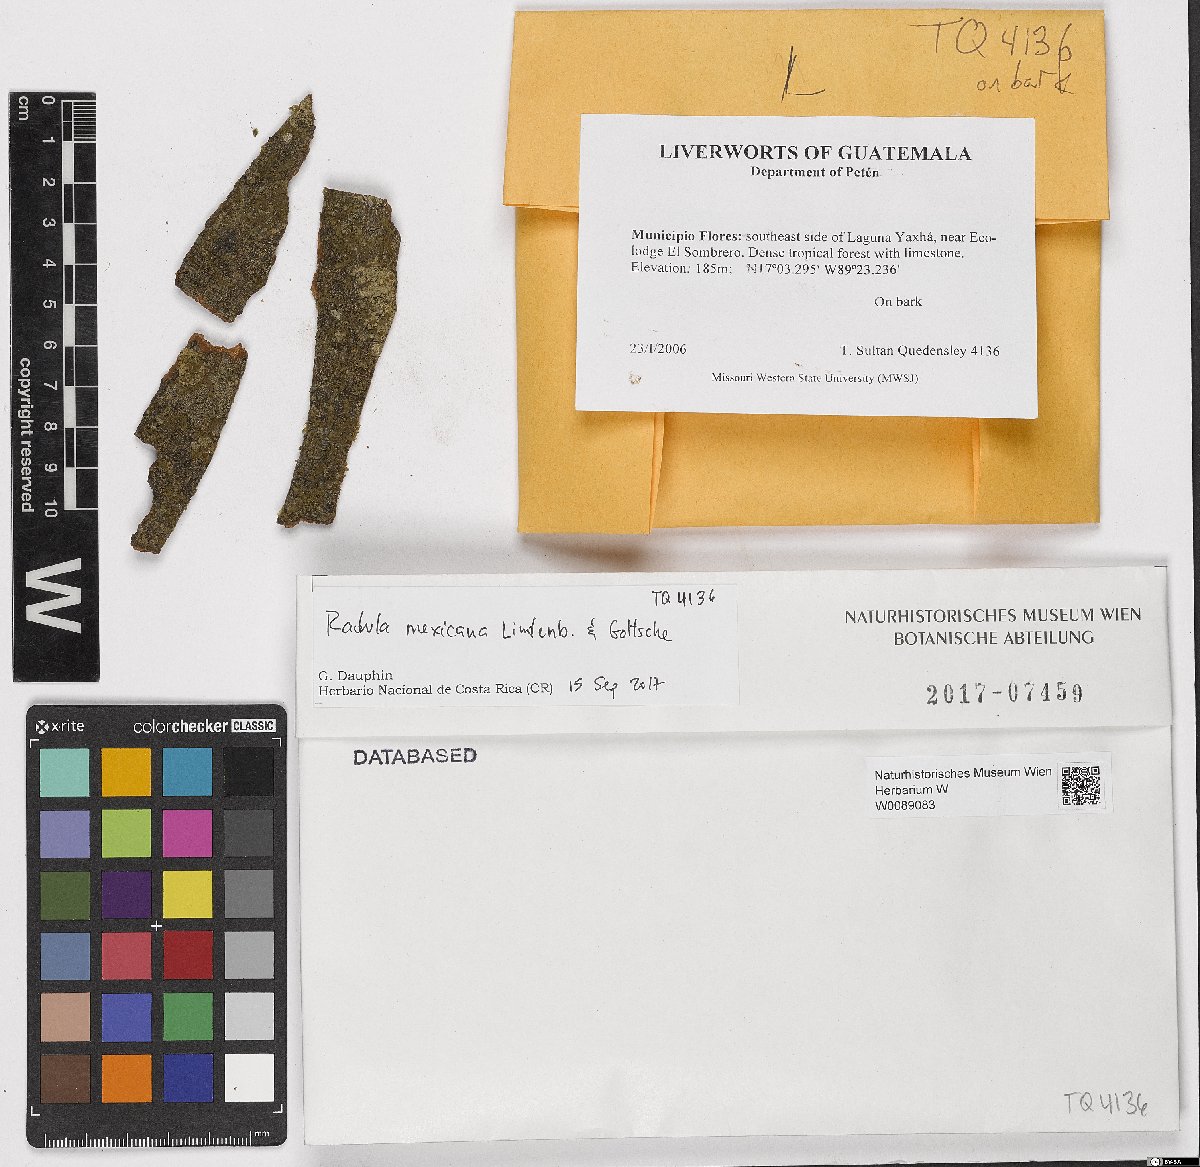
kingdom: Plantae
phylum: Marchantiophyta
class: Jungermanniopsida
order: Porellales
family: Radulaceae
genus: Radula
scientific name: Radula mexicana
